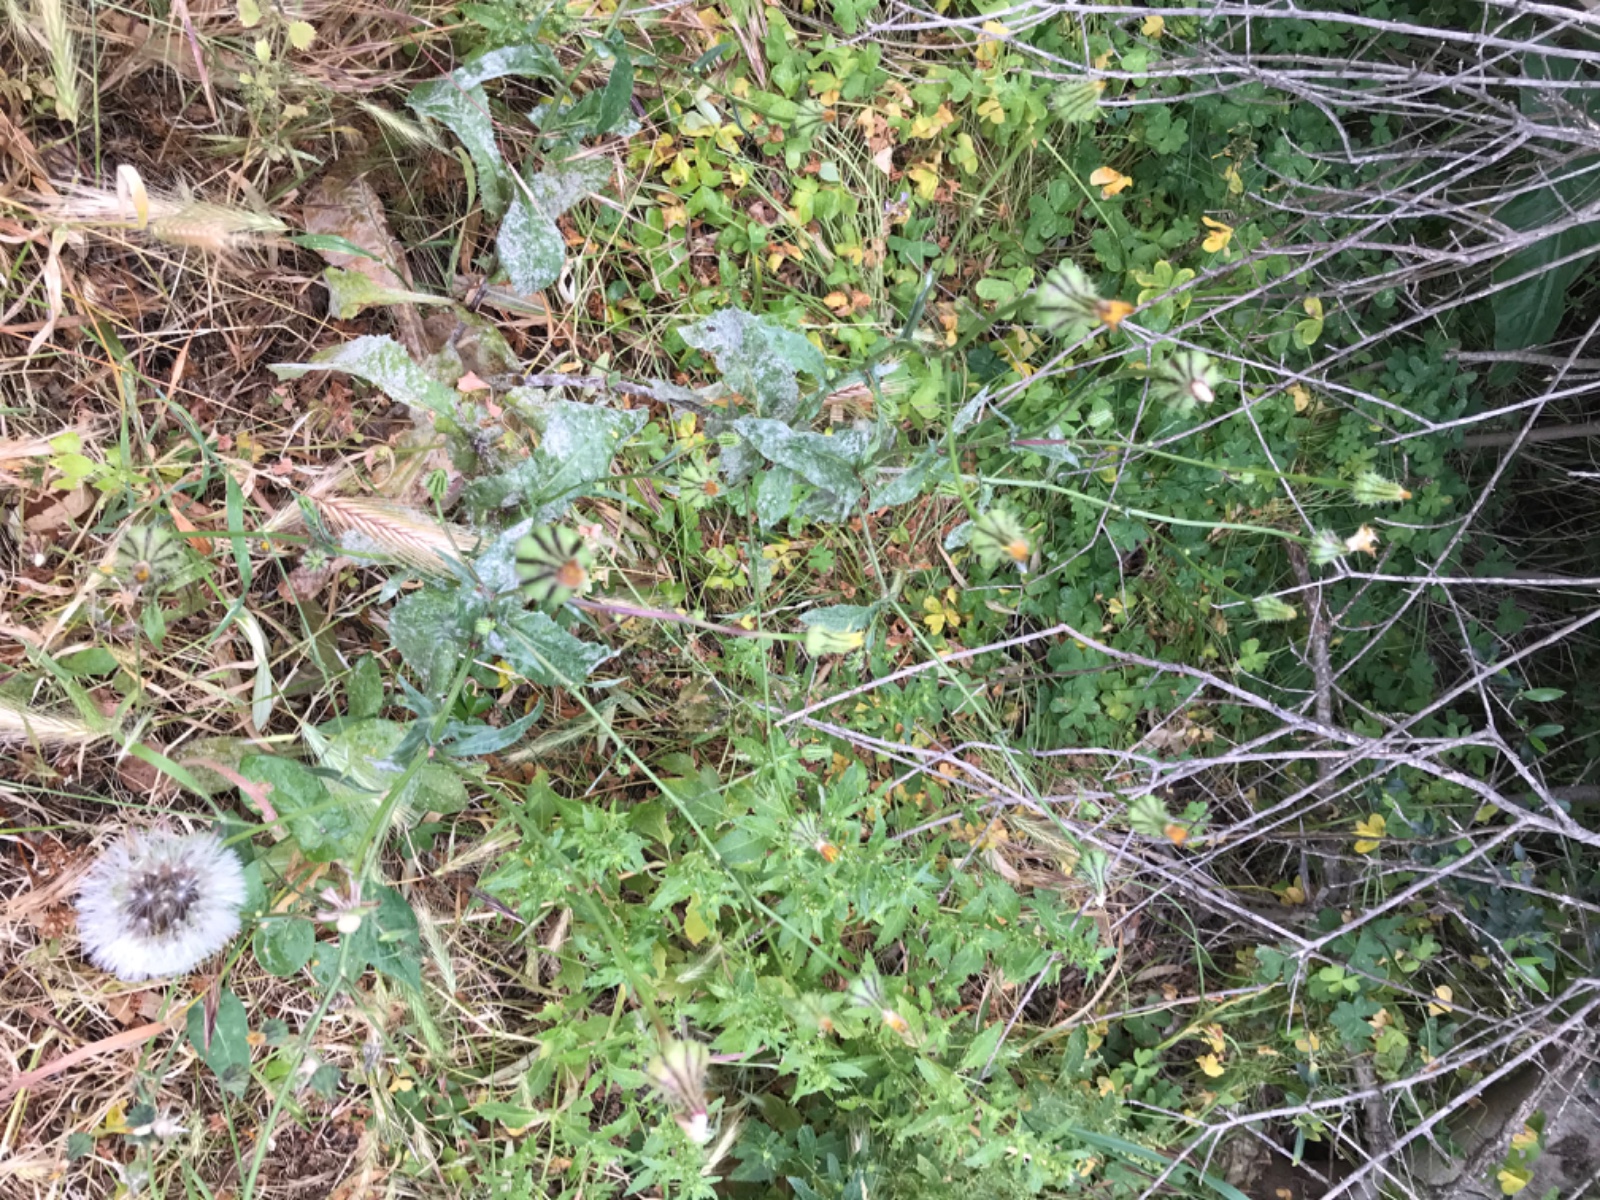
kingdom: Fungi
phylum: Ascomycota
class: Leotiomycetes
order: Helotiales
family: Erysiphaceae
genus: Golovinomyces
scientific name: Golovinomyces cichoracearum
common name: kurvblomst-meldug
